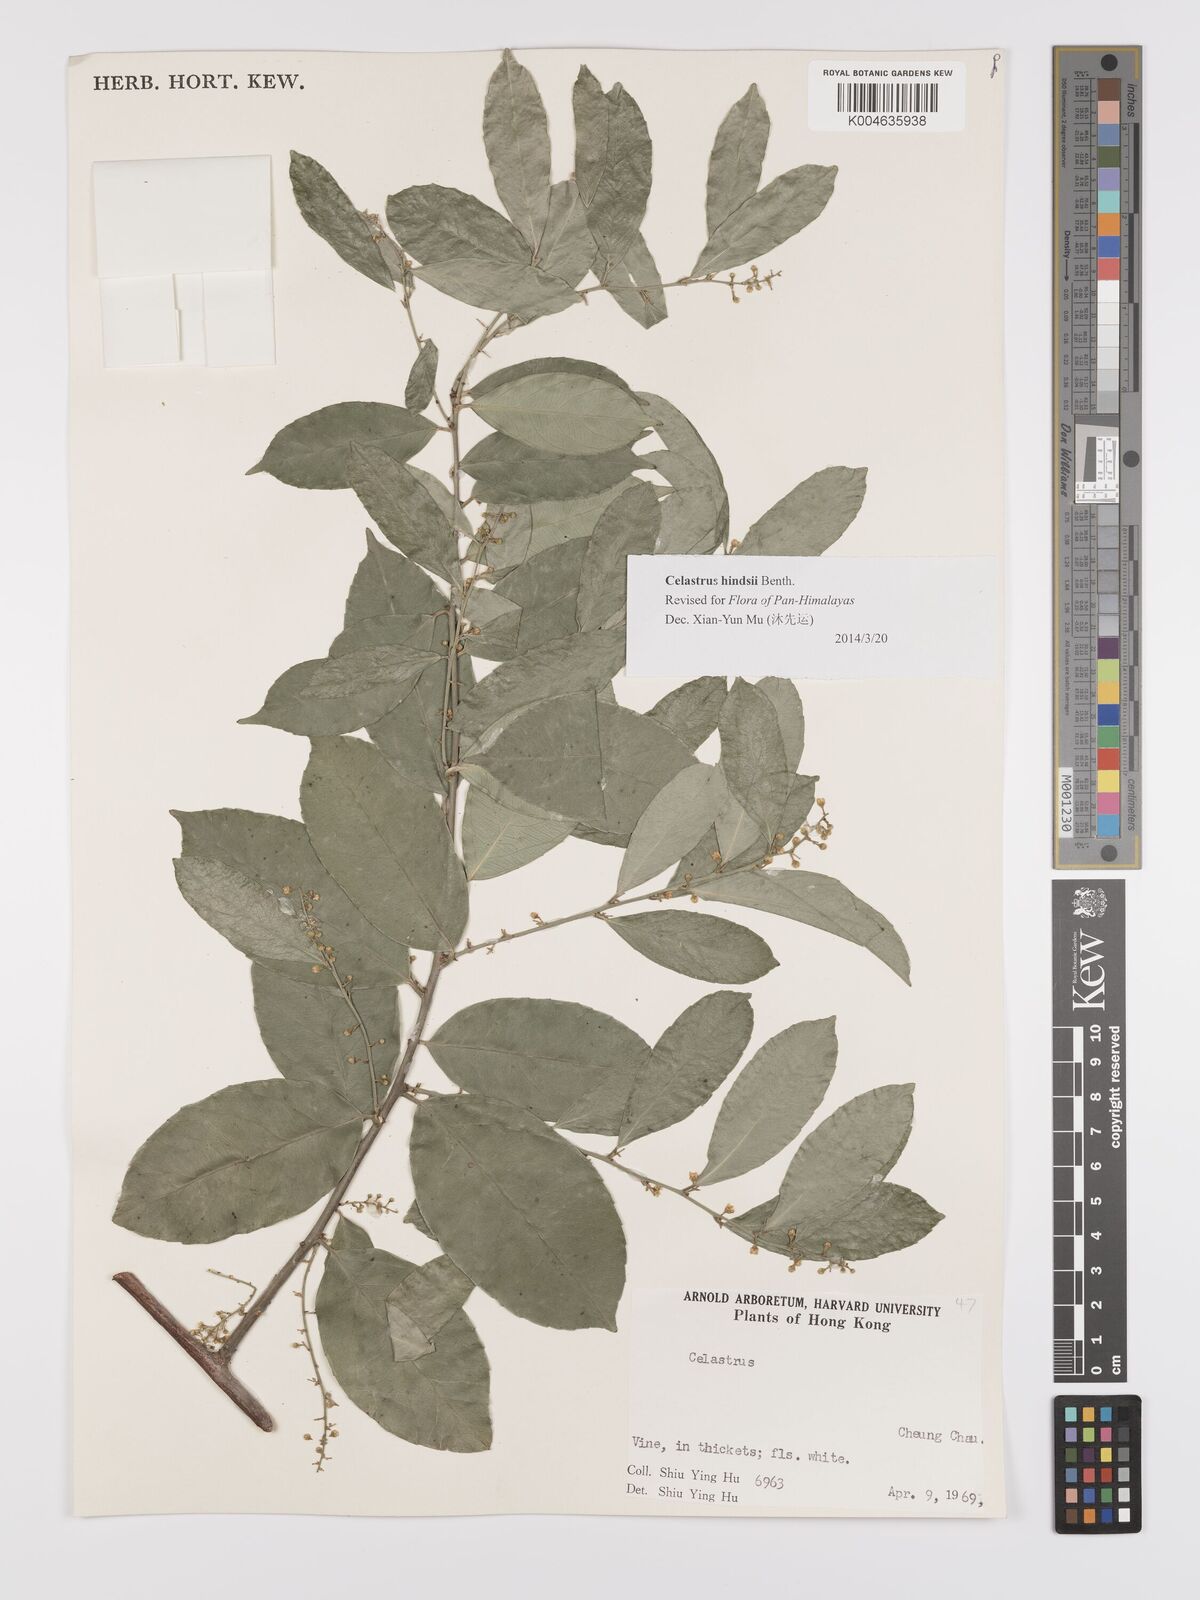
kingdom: Plantae
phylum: Tracheophyta
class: Magnoliopsida
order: Celastrales
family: Celastraceae
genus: Celastrus
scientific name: Celastrus hindsii
